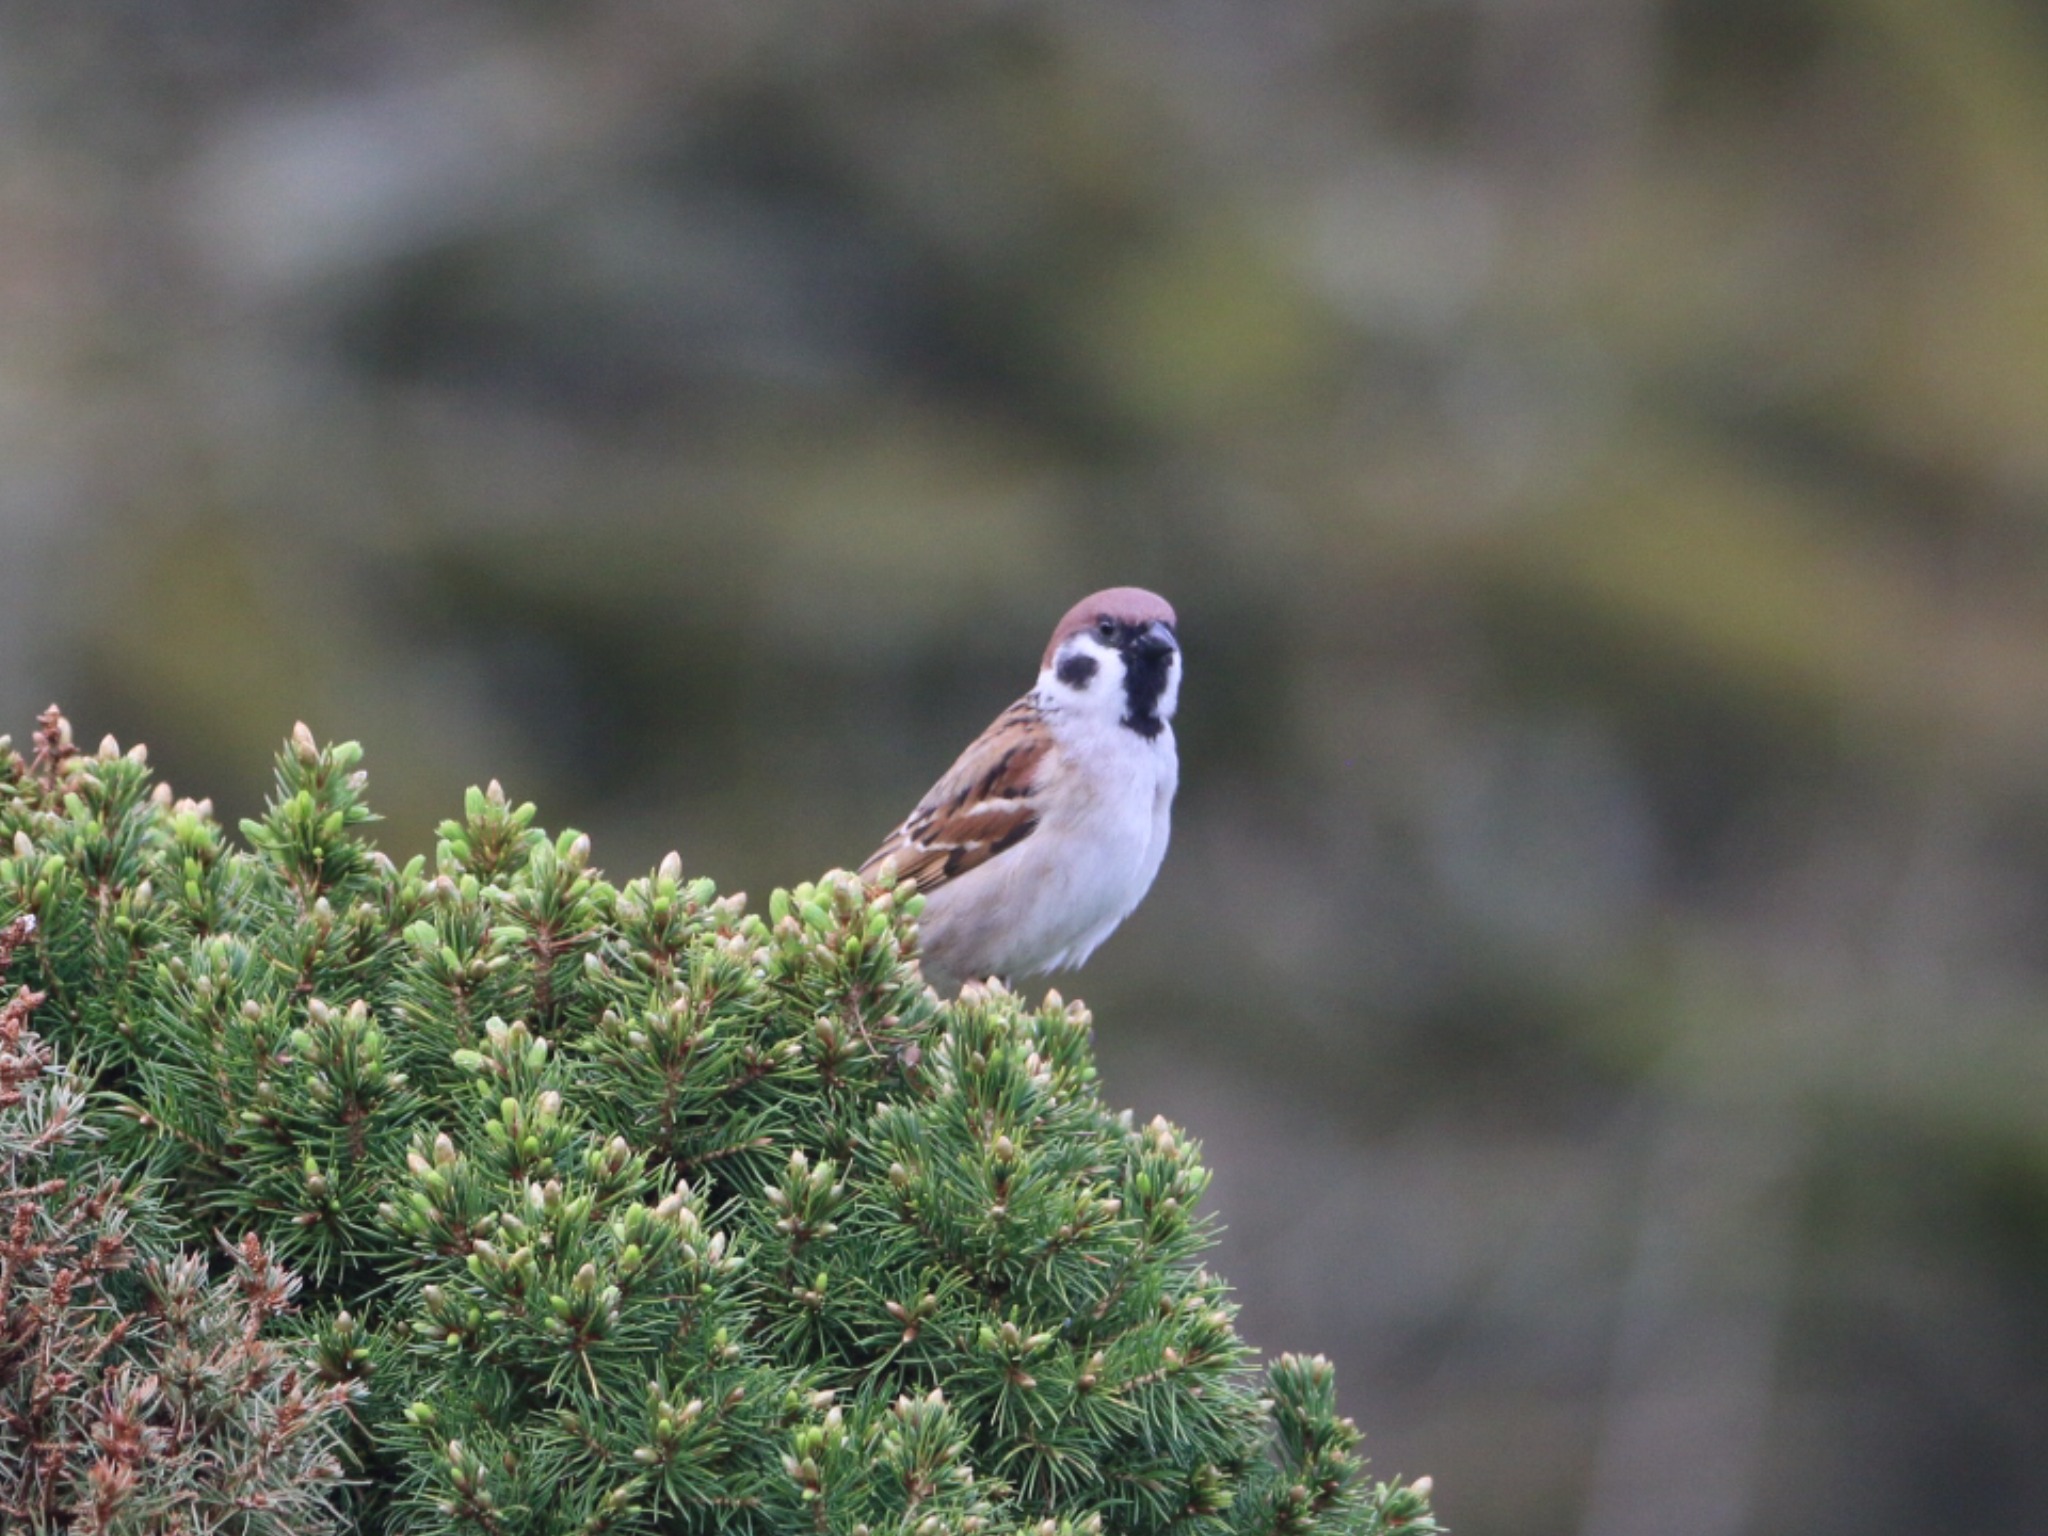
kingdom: Animalia
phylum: Chordata
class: Aves
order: Passeriformes
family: Passeridae
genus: Passer
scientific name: Passer montanus
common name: Skovspurv
